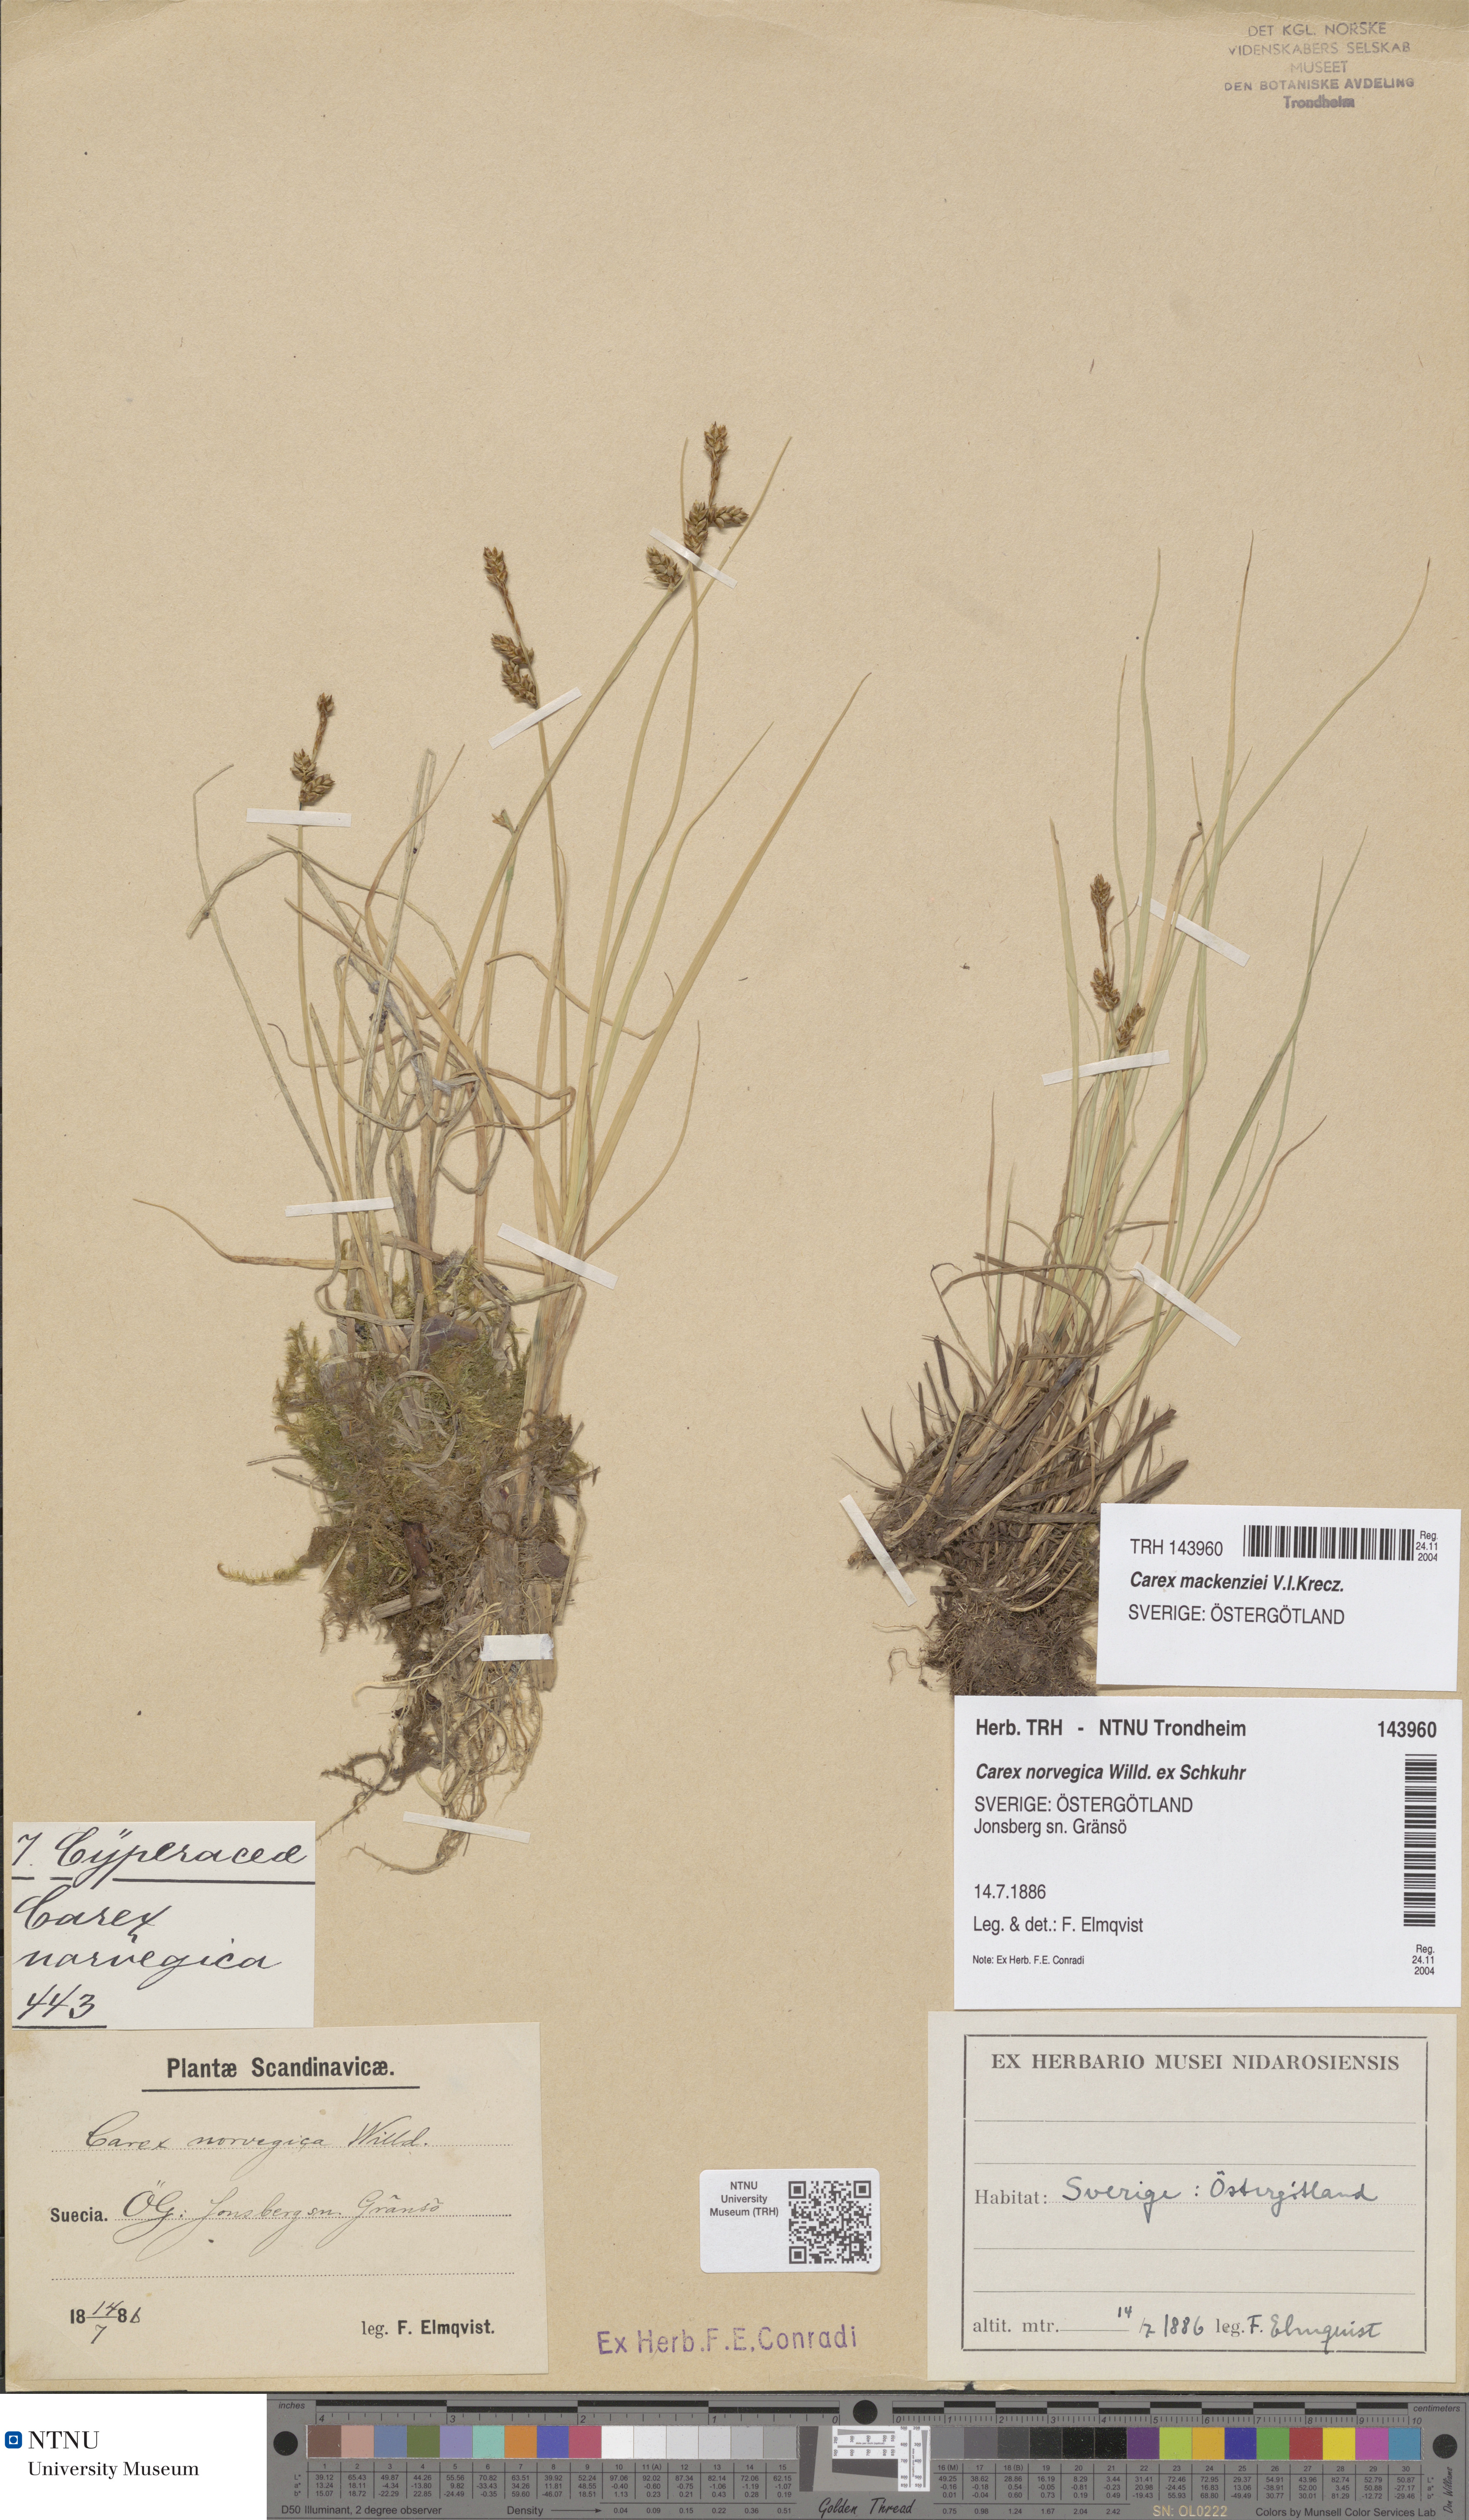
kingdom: Plantae
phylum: Tracheophyta
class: Liliopsida
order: Poales
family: Cyperaceae
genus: Carex
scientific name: Carex mackenziei
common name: Mackenzie's sedge
